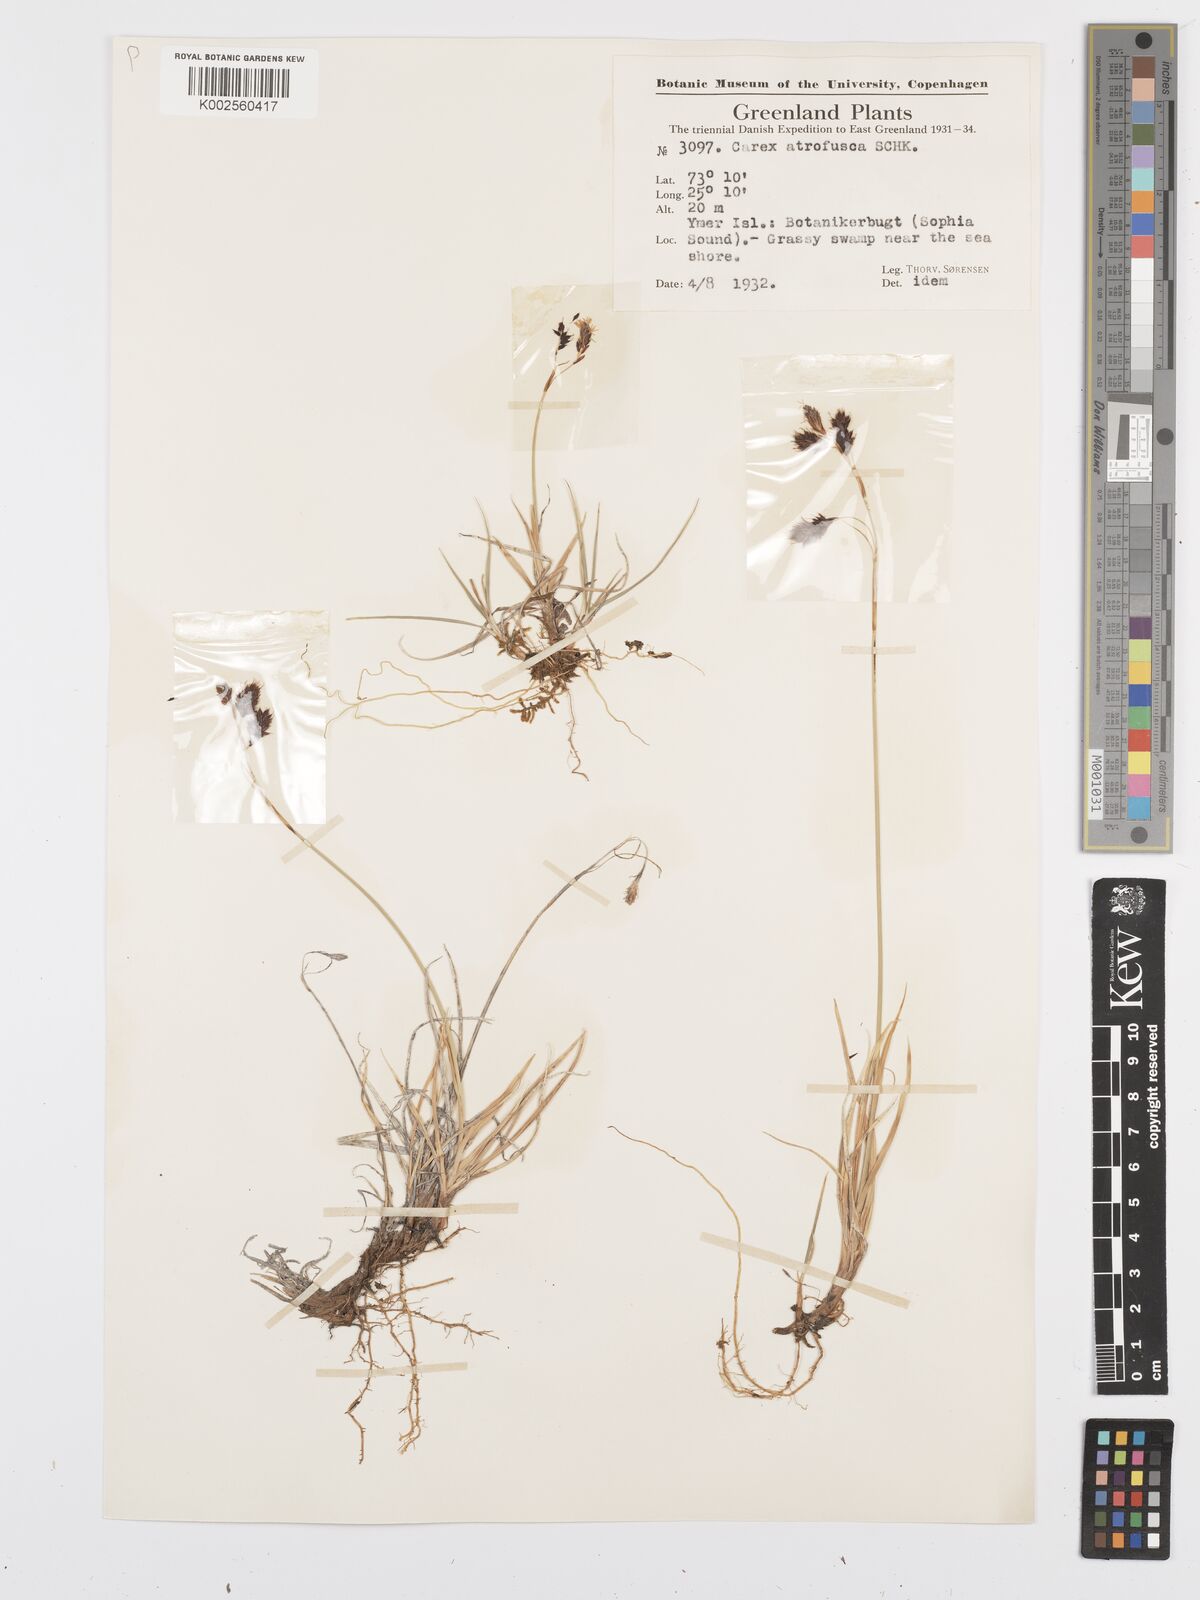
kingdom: Plantae
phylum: Tracheophyta
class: Liliopsida
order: Poales
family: Cyperaceae
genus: Carex
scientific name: Carex atrofusca
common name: Scorched alpine-sedge
